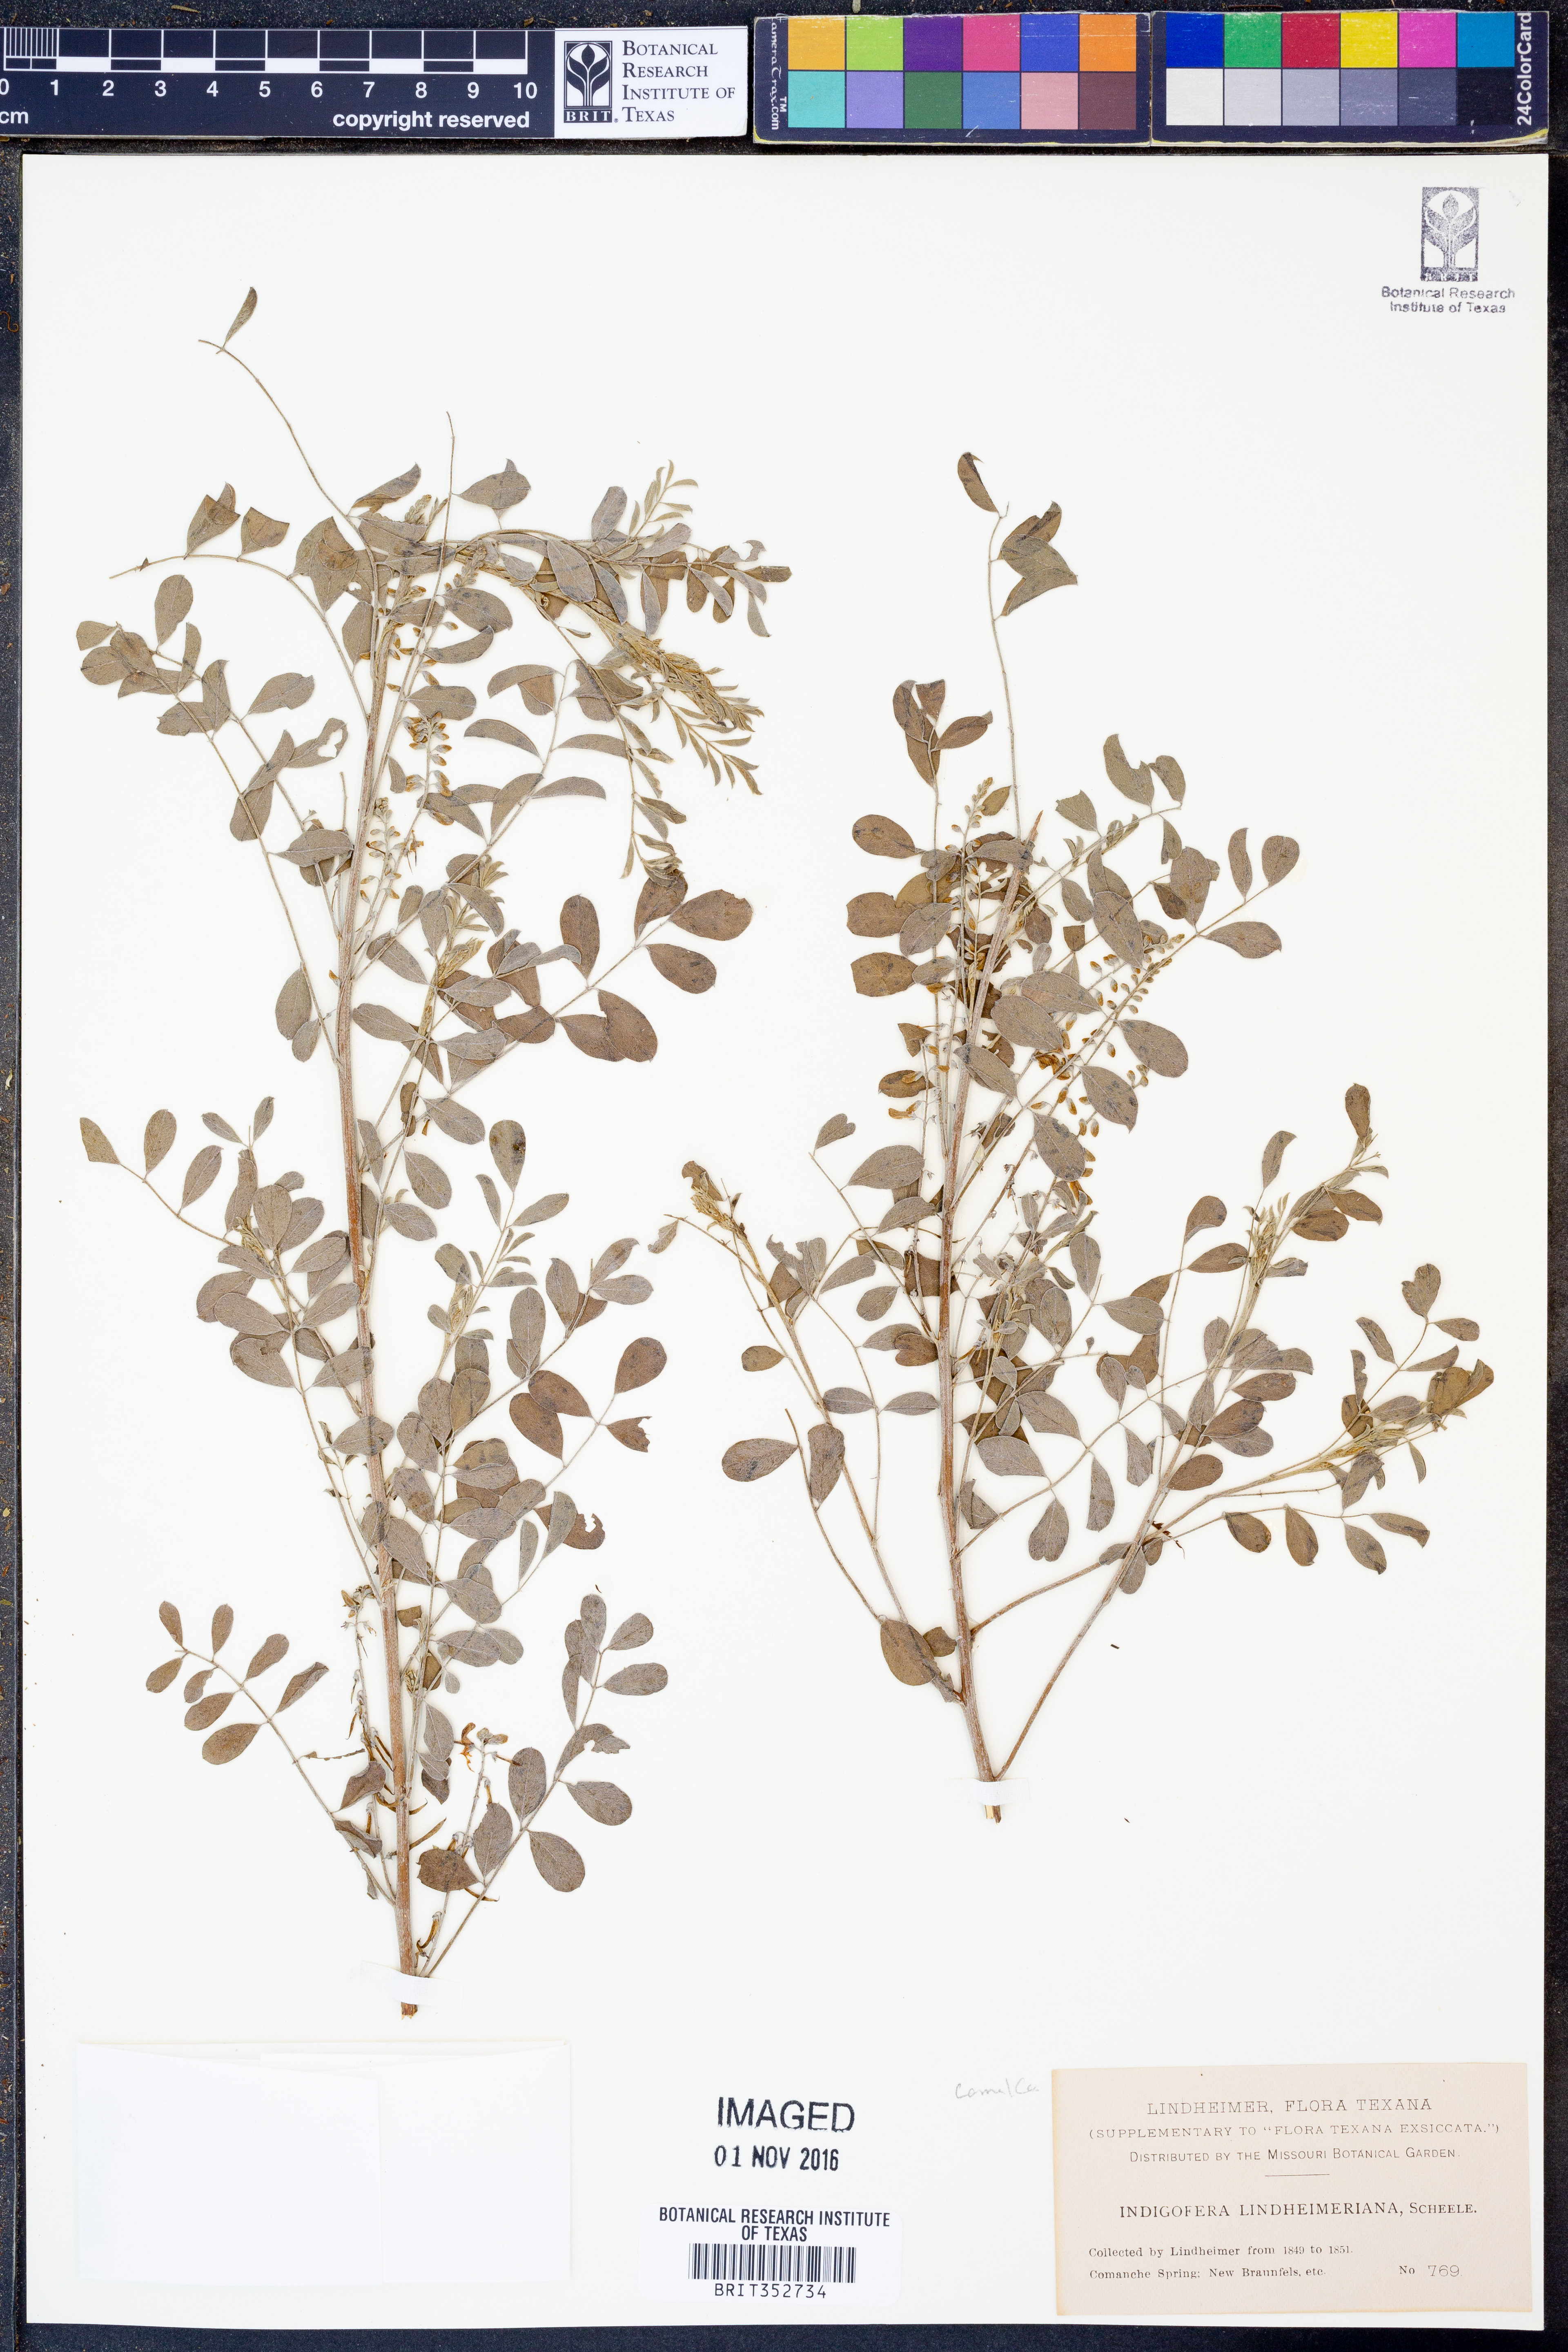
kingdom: Plantae
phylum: Tracheophyta
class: Magnoliopsida
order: Fabales
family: Fabaceae
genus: Indigofera
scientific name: Indigofera lindheimeriana
